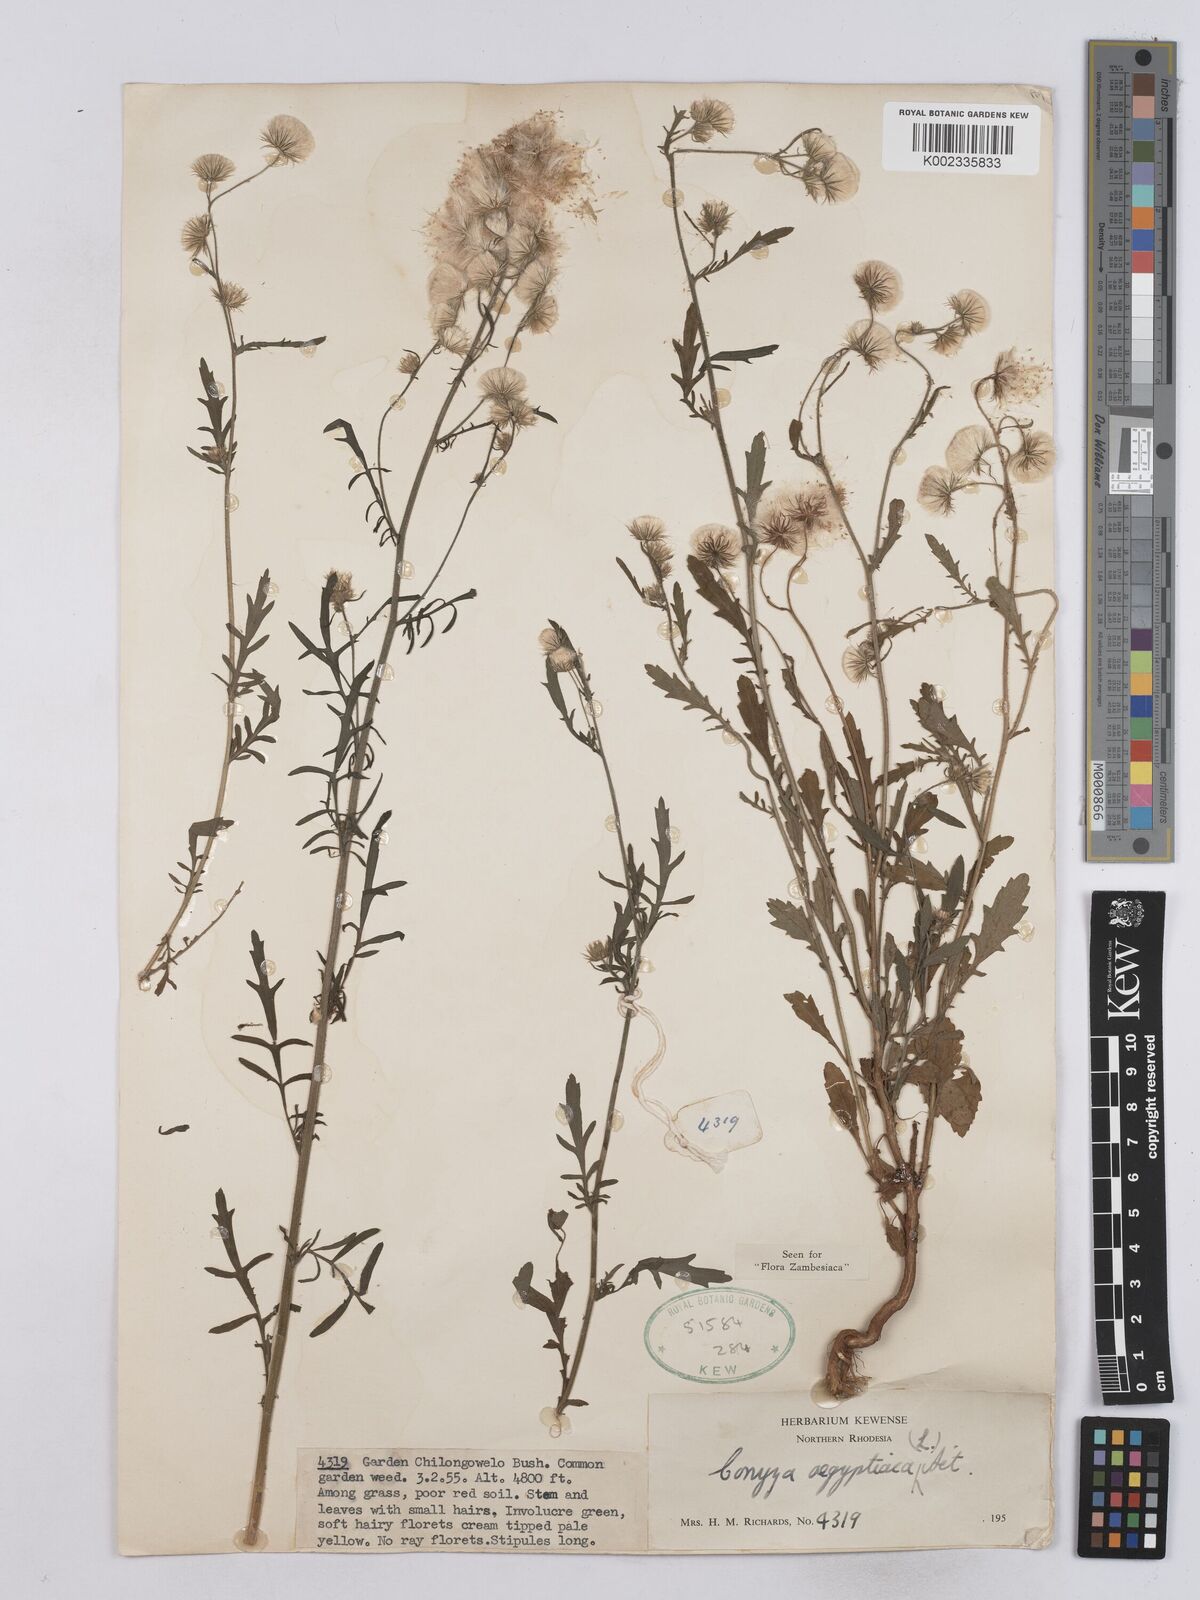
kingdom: Plantae
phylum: Tracheophyta
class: Magnoliopsida
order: Asterales
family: Asteraceae
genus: Nidorella
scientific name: Nidorella aegyptiaca
